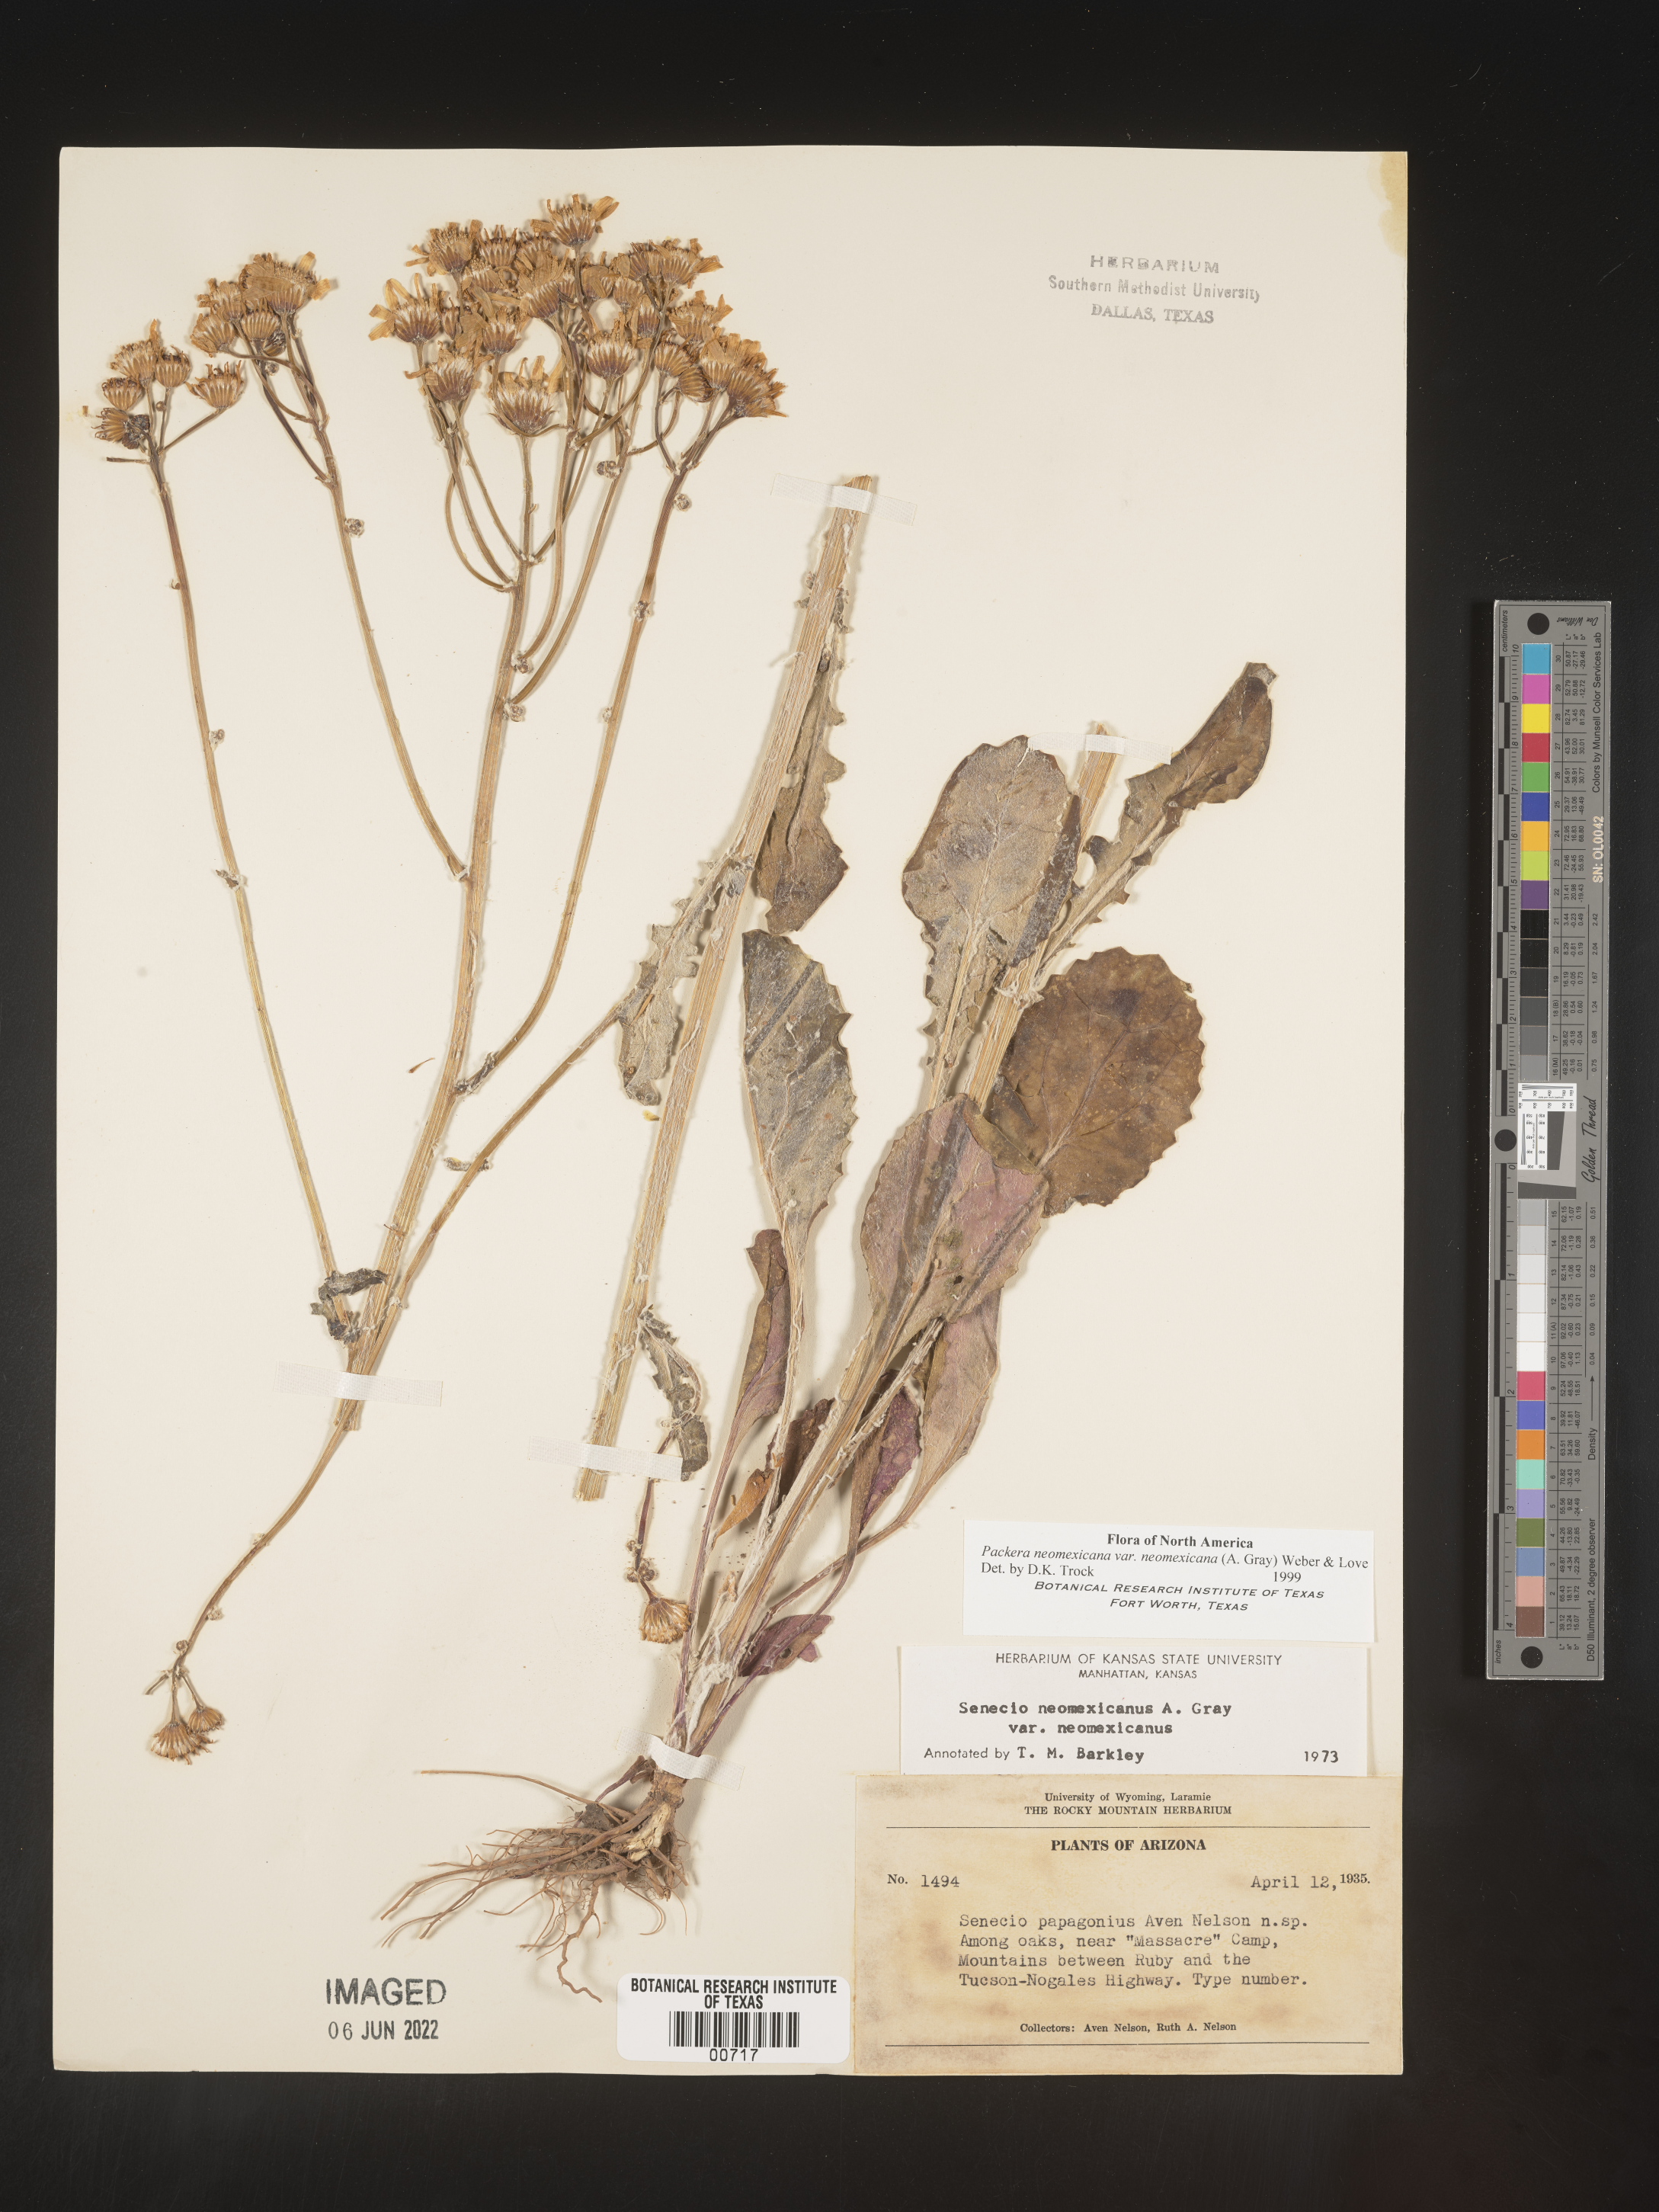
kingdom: Plantae
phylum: Tracheophyta
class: Magnoliopsida
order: Asterales
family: Asteraceae
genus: Packera
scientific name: Packera neomexicana
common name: New mexico butterweed
